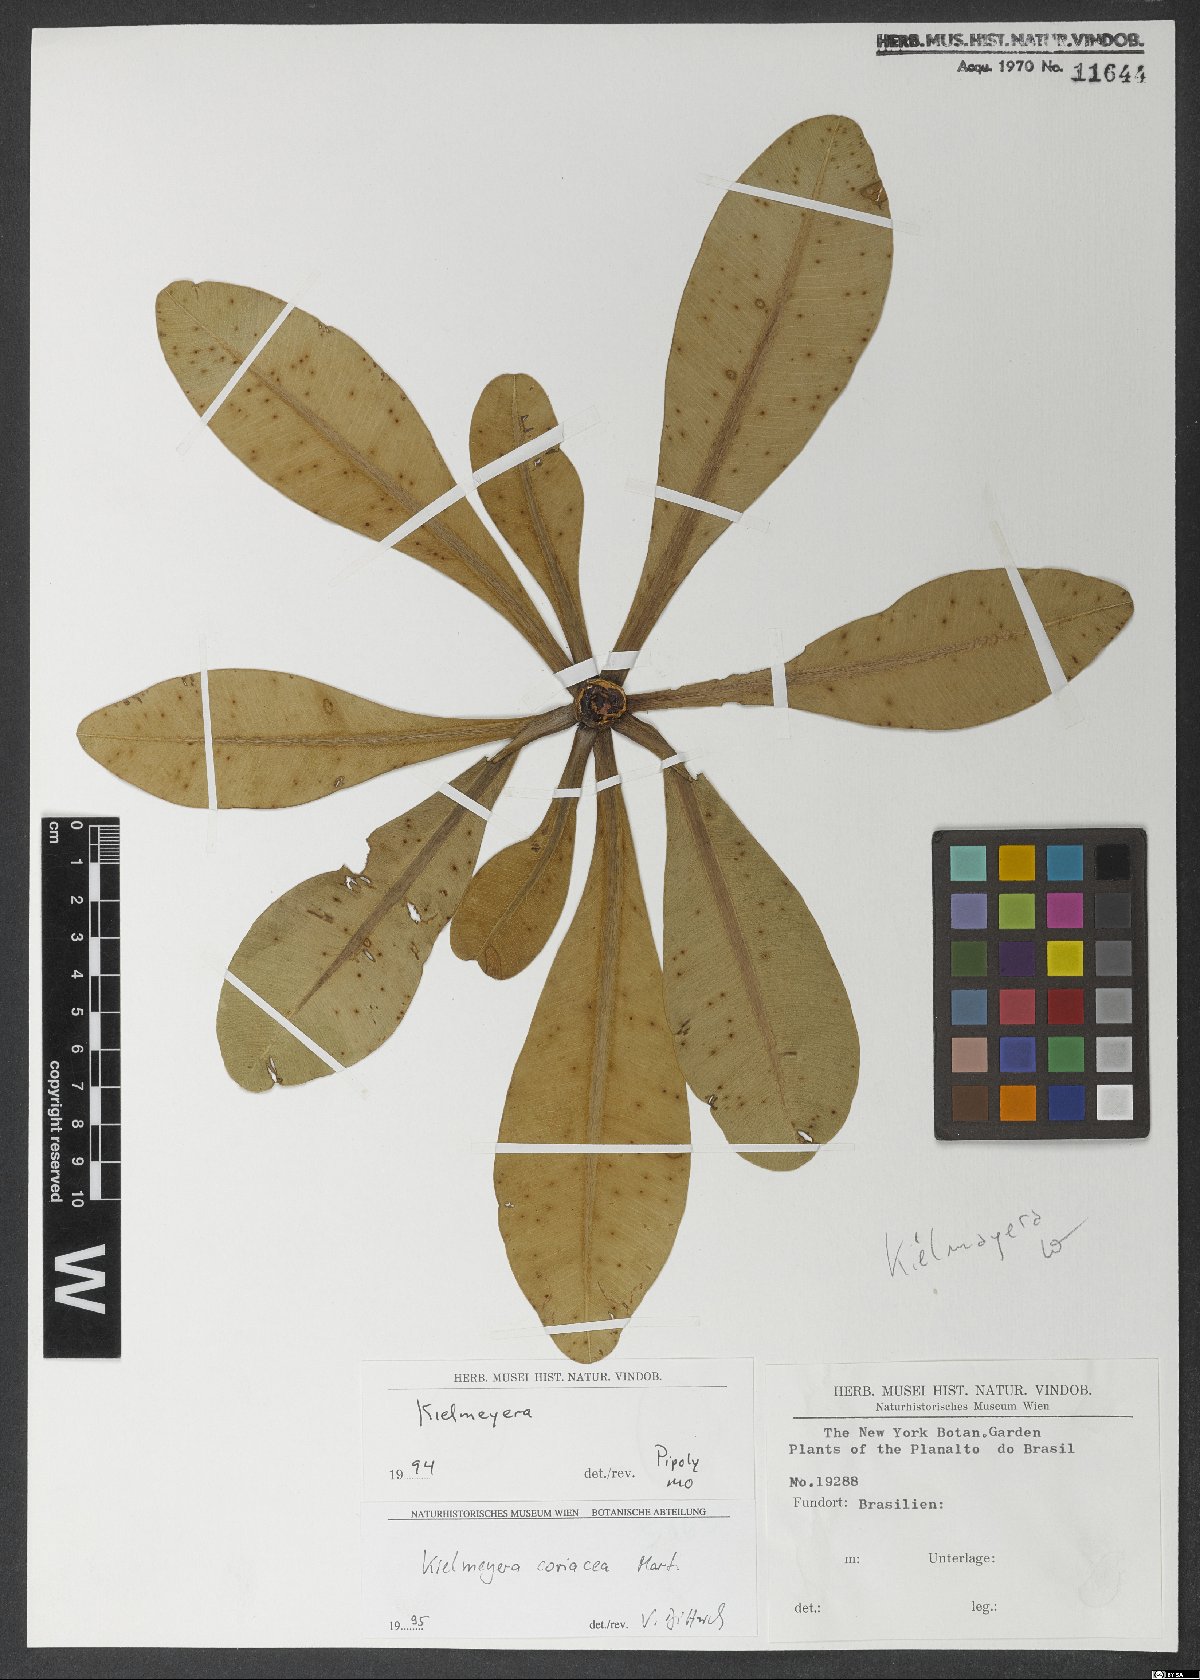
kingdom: Plantae
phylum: Tracheophyta
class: Magnoliopsida
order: Malpighiales
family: Calophyllaceae
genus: Kielmeyera
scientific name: Kielmeyera coriacea
